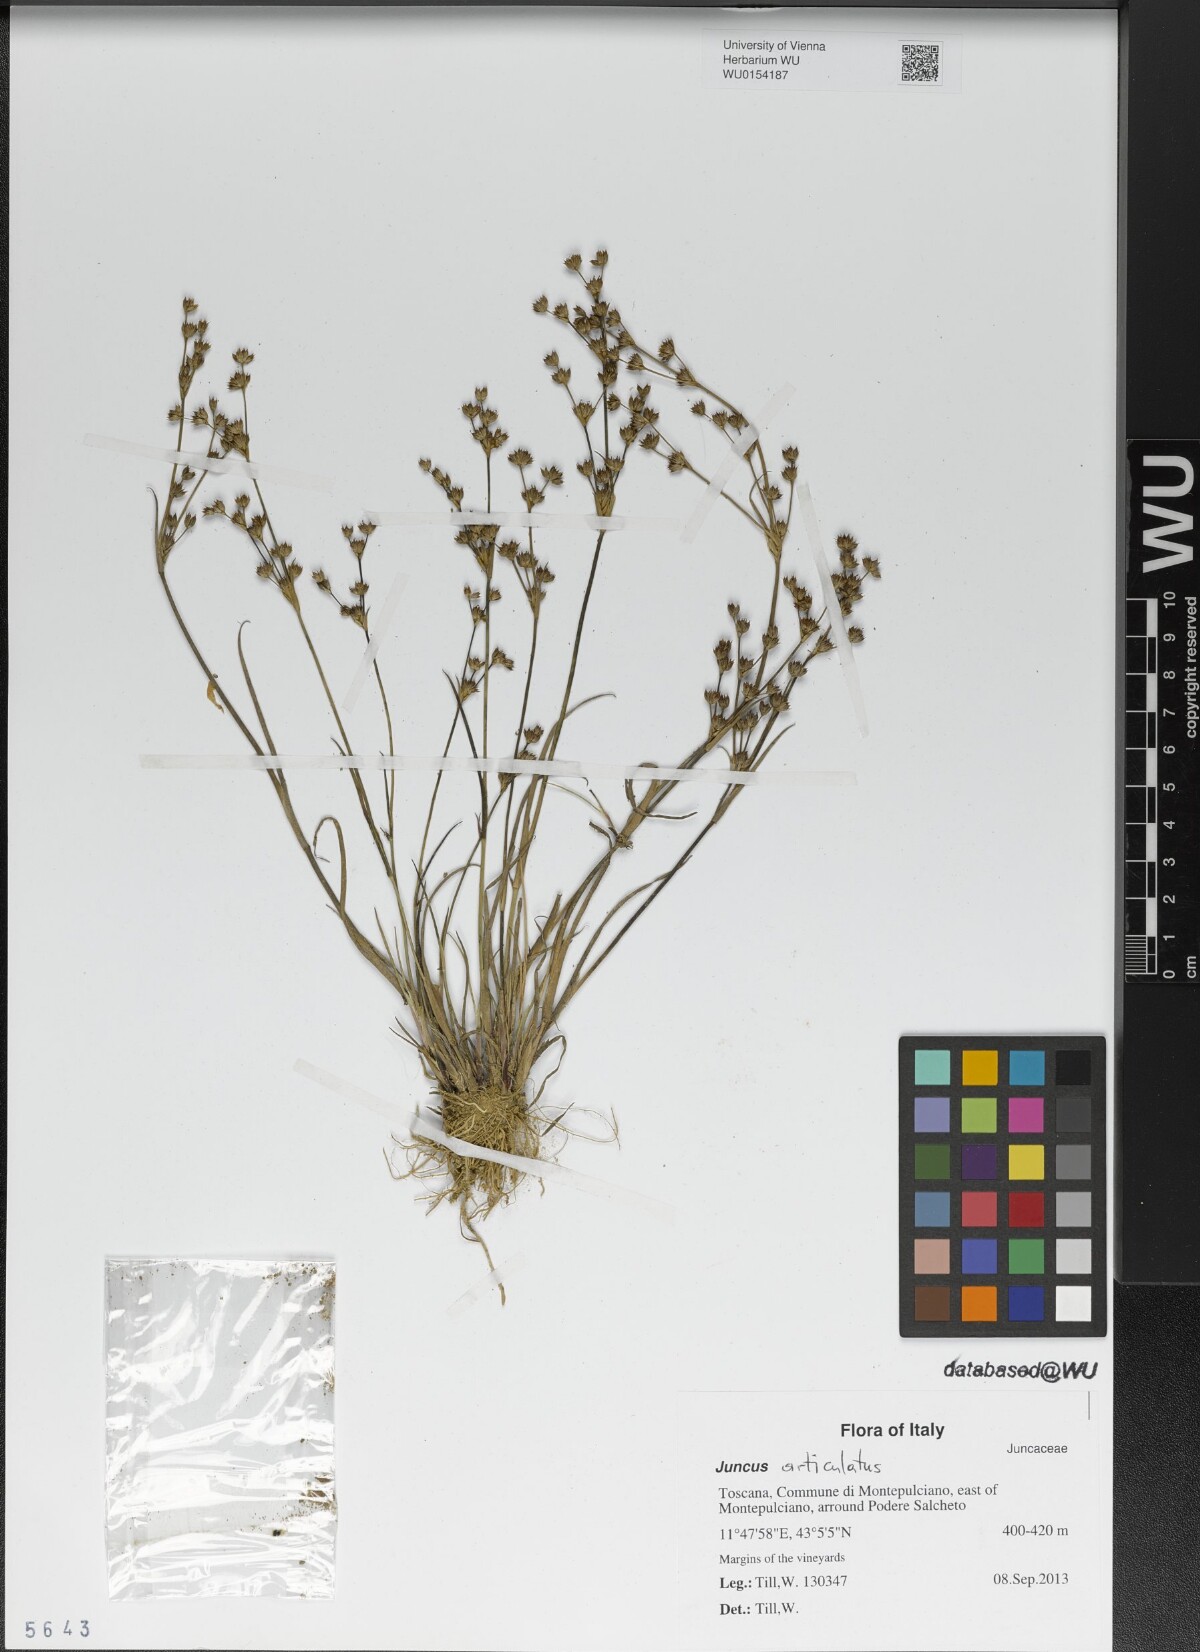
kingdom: Plantae
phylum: Tracheophyta
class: Liliopsida
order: Poales
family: Juncaceae
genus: Juncus
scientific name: Juncus articulatus
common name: Jointed rush
